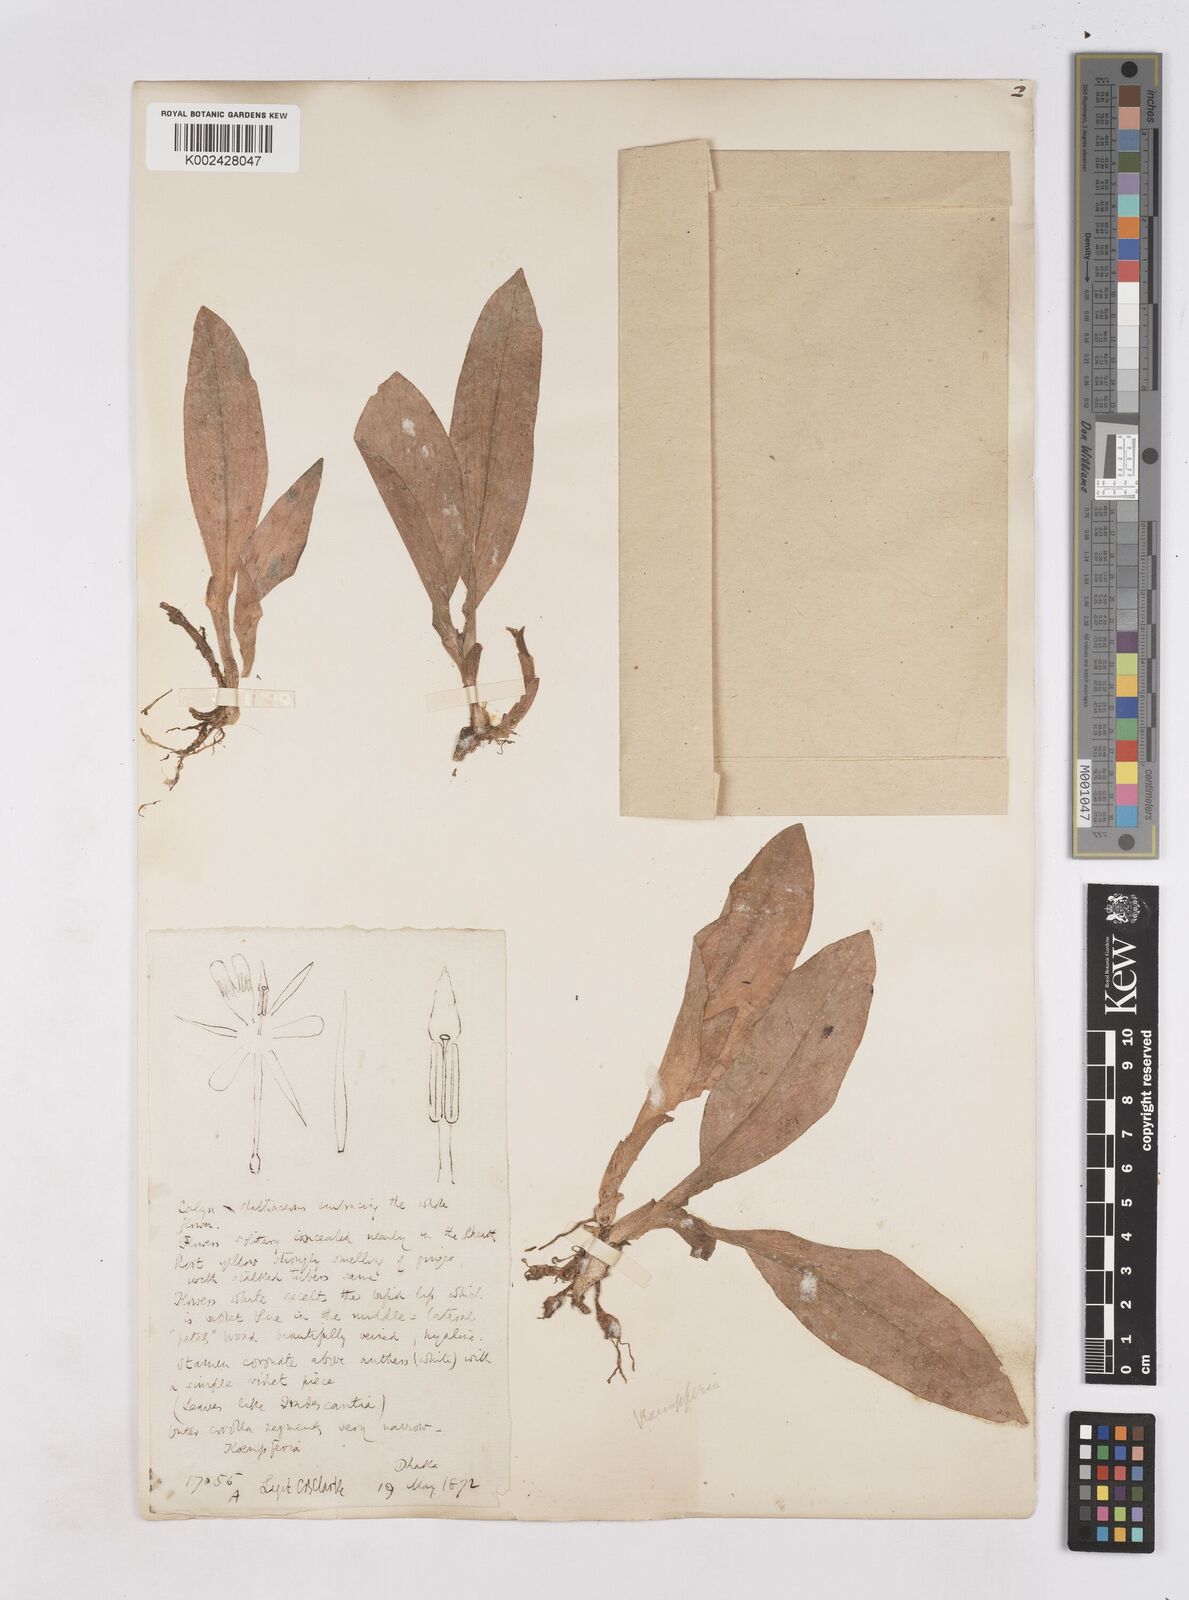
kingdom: Plantae
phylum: Tracheophyta
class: Liliopsida
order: Zingiberales
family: Zingiberaceae
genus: Kaempferia
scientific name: Kaempferia
